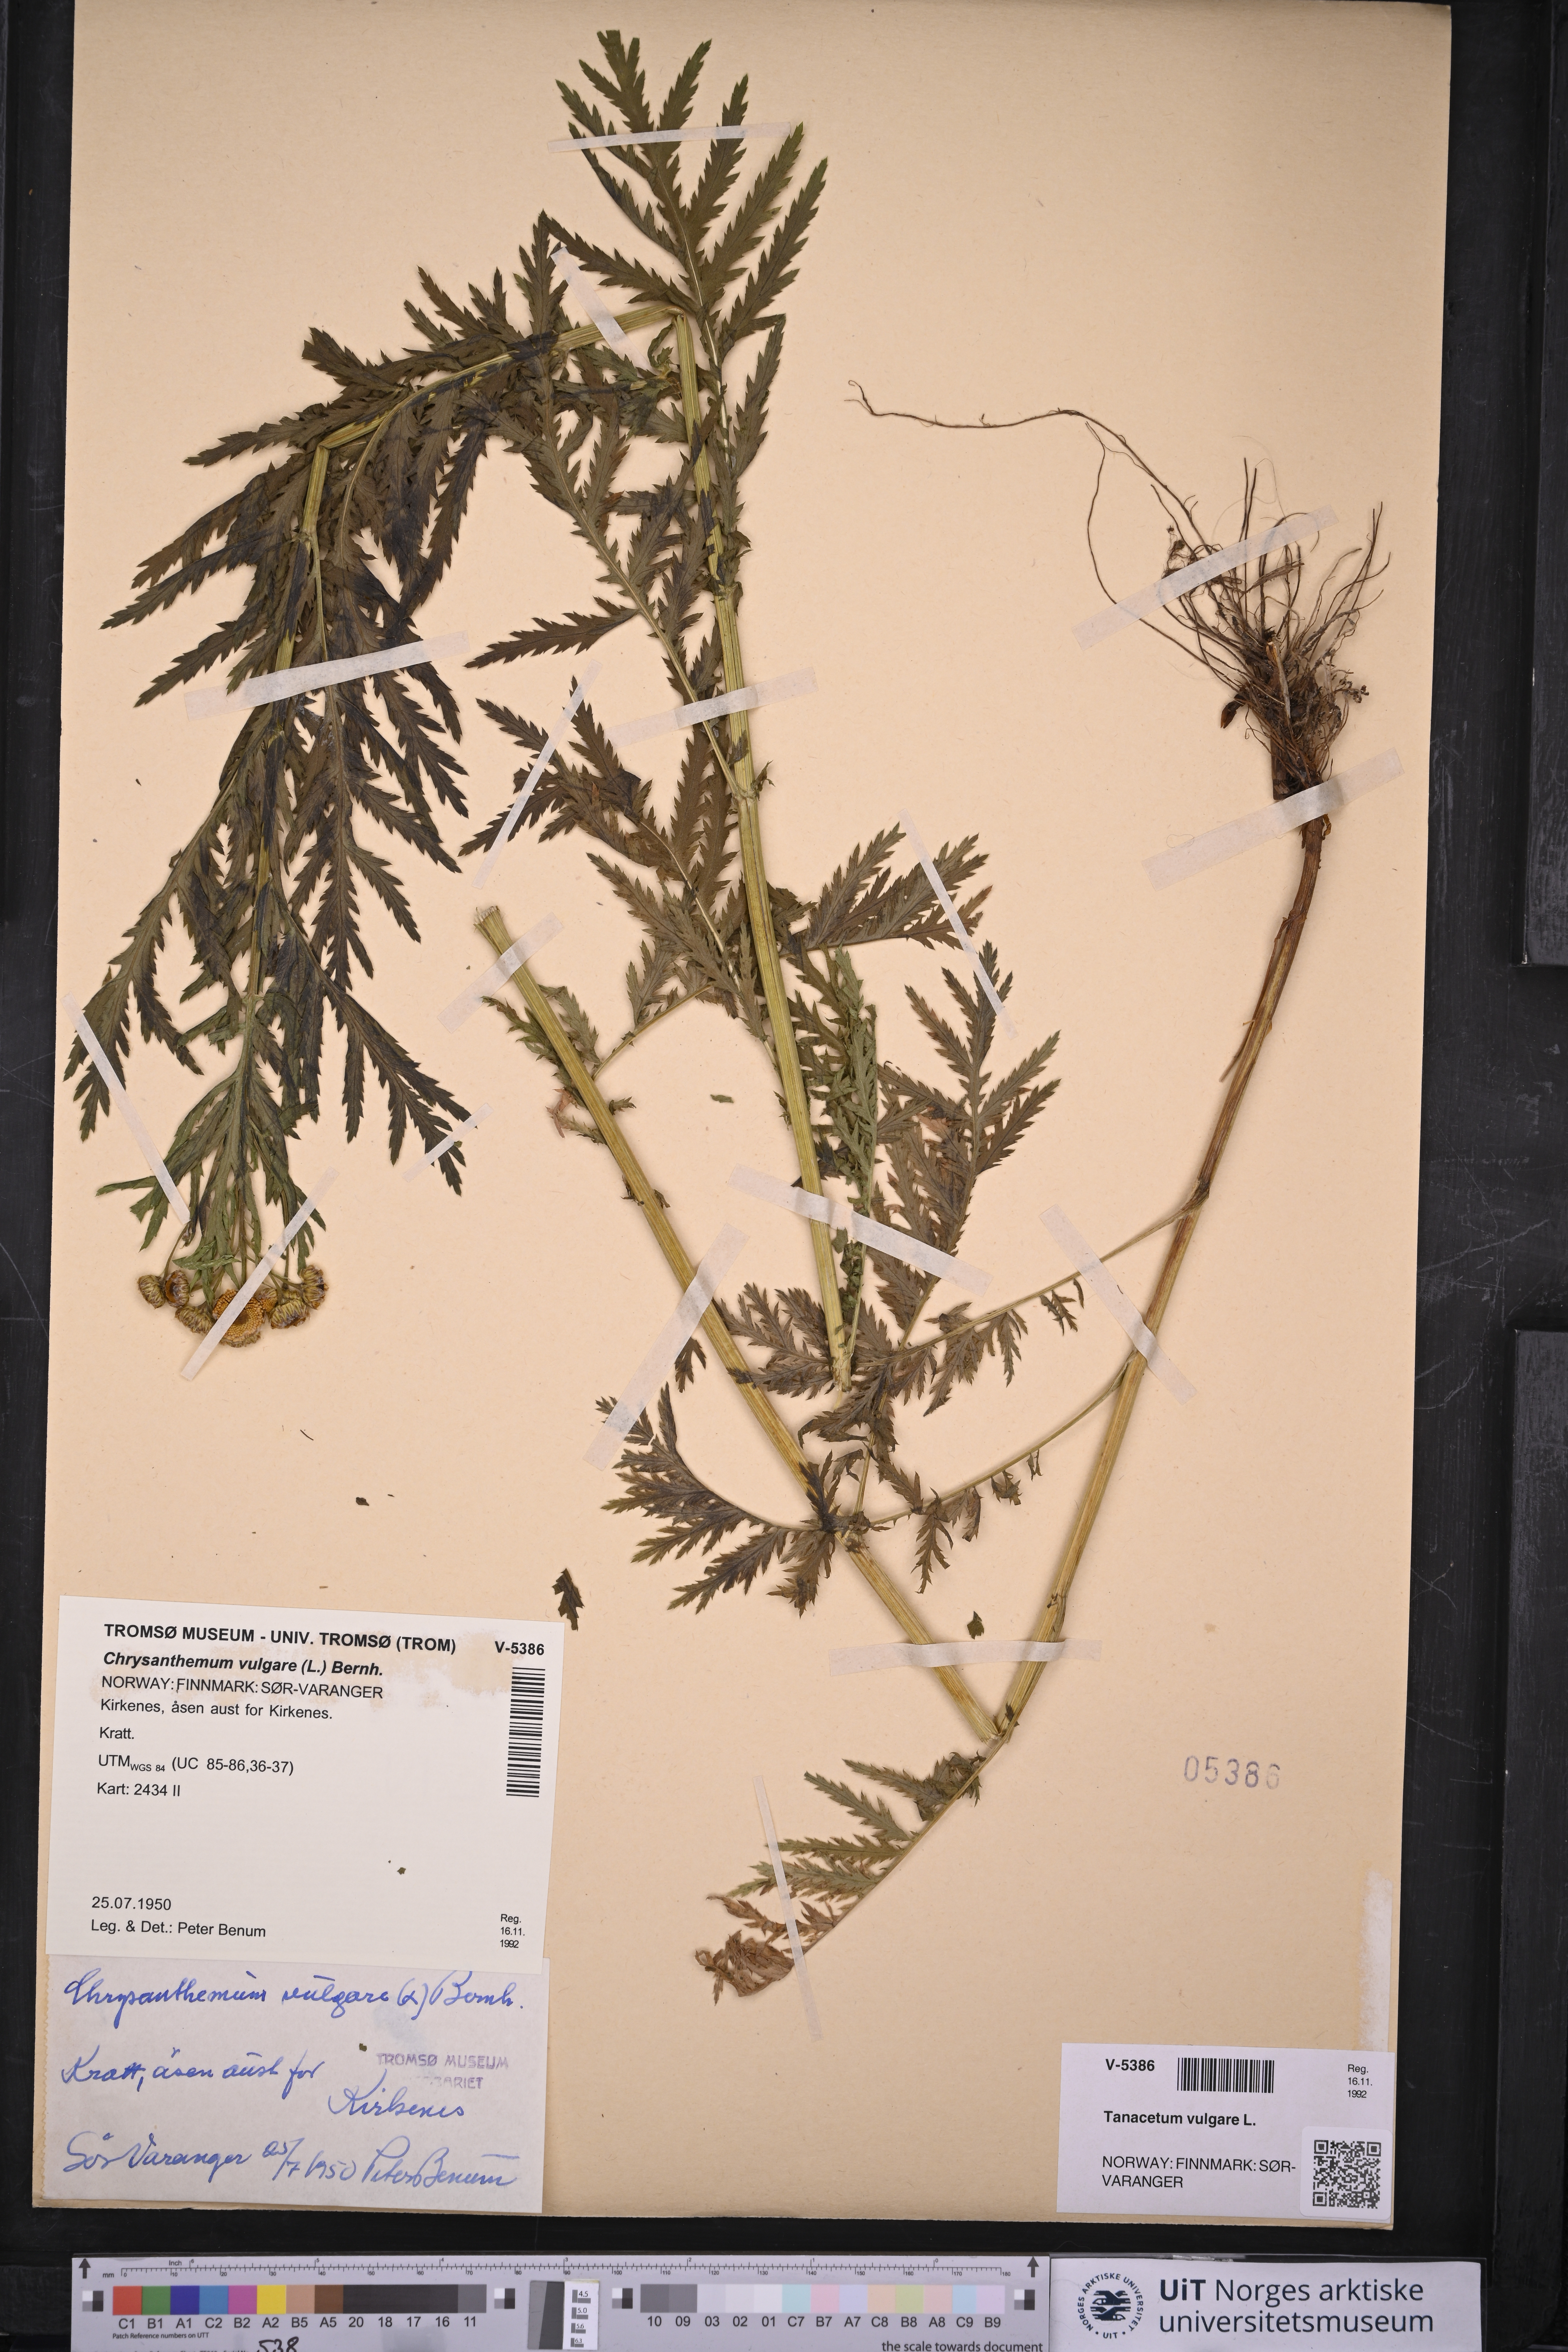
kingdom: Plantae
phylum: Tracheophyta
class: Magnoliopsida
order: Asterales
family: Asteraceae
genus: Tanacetum
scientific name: Tanacetum vulgare
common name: Common tansy
